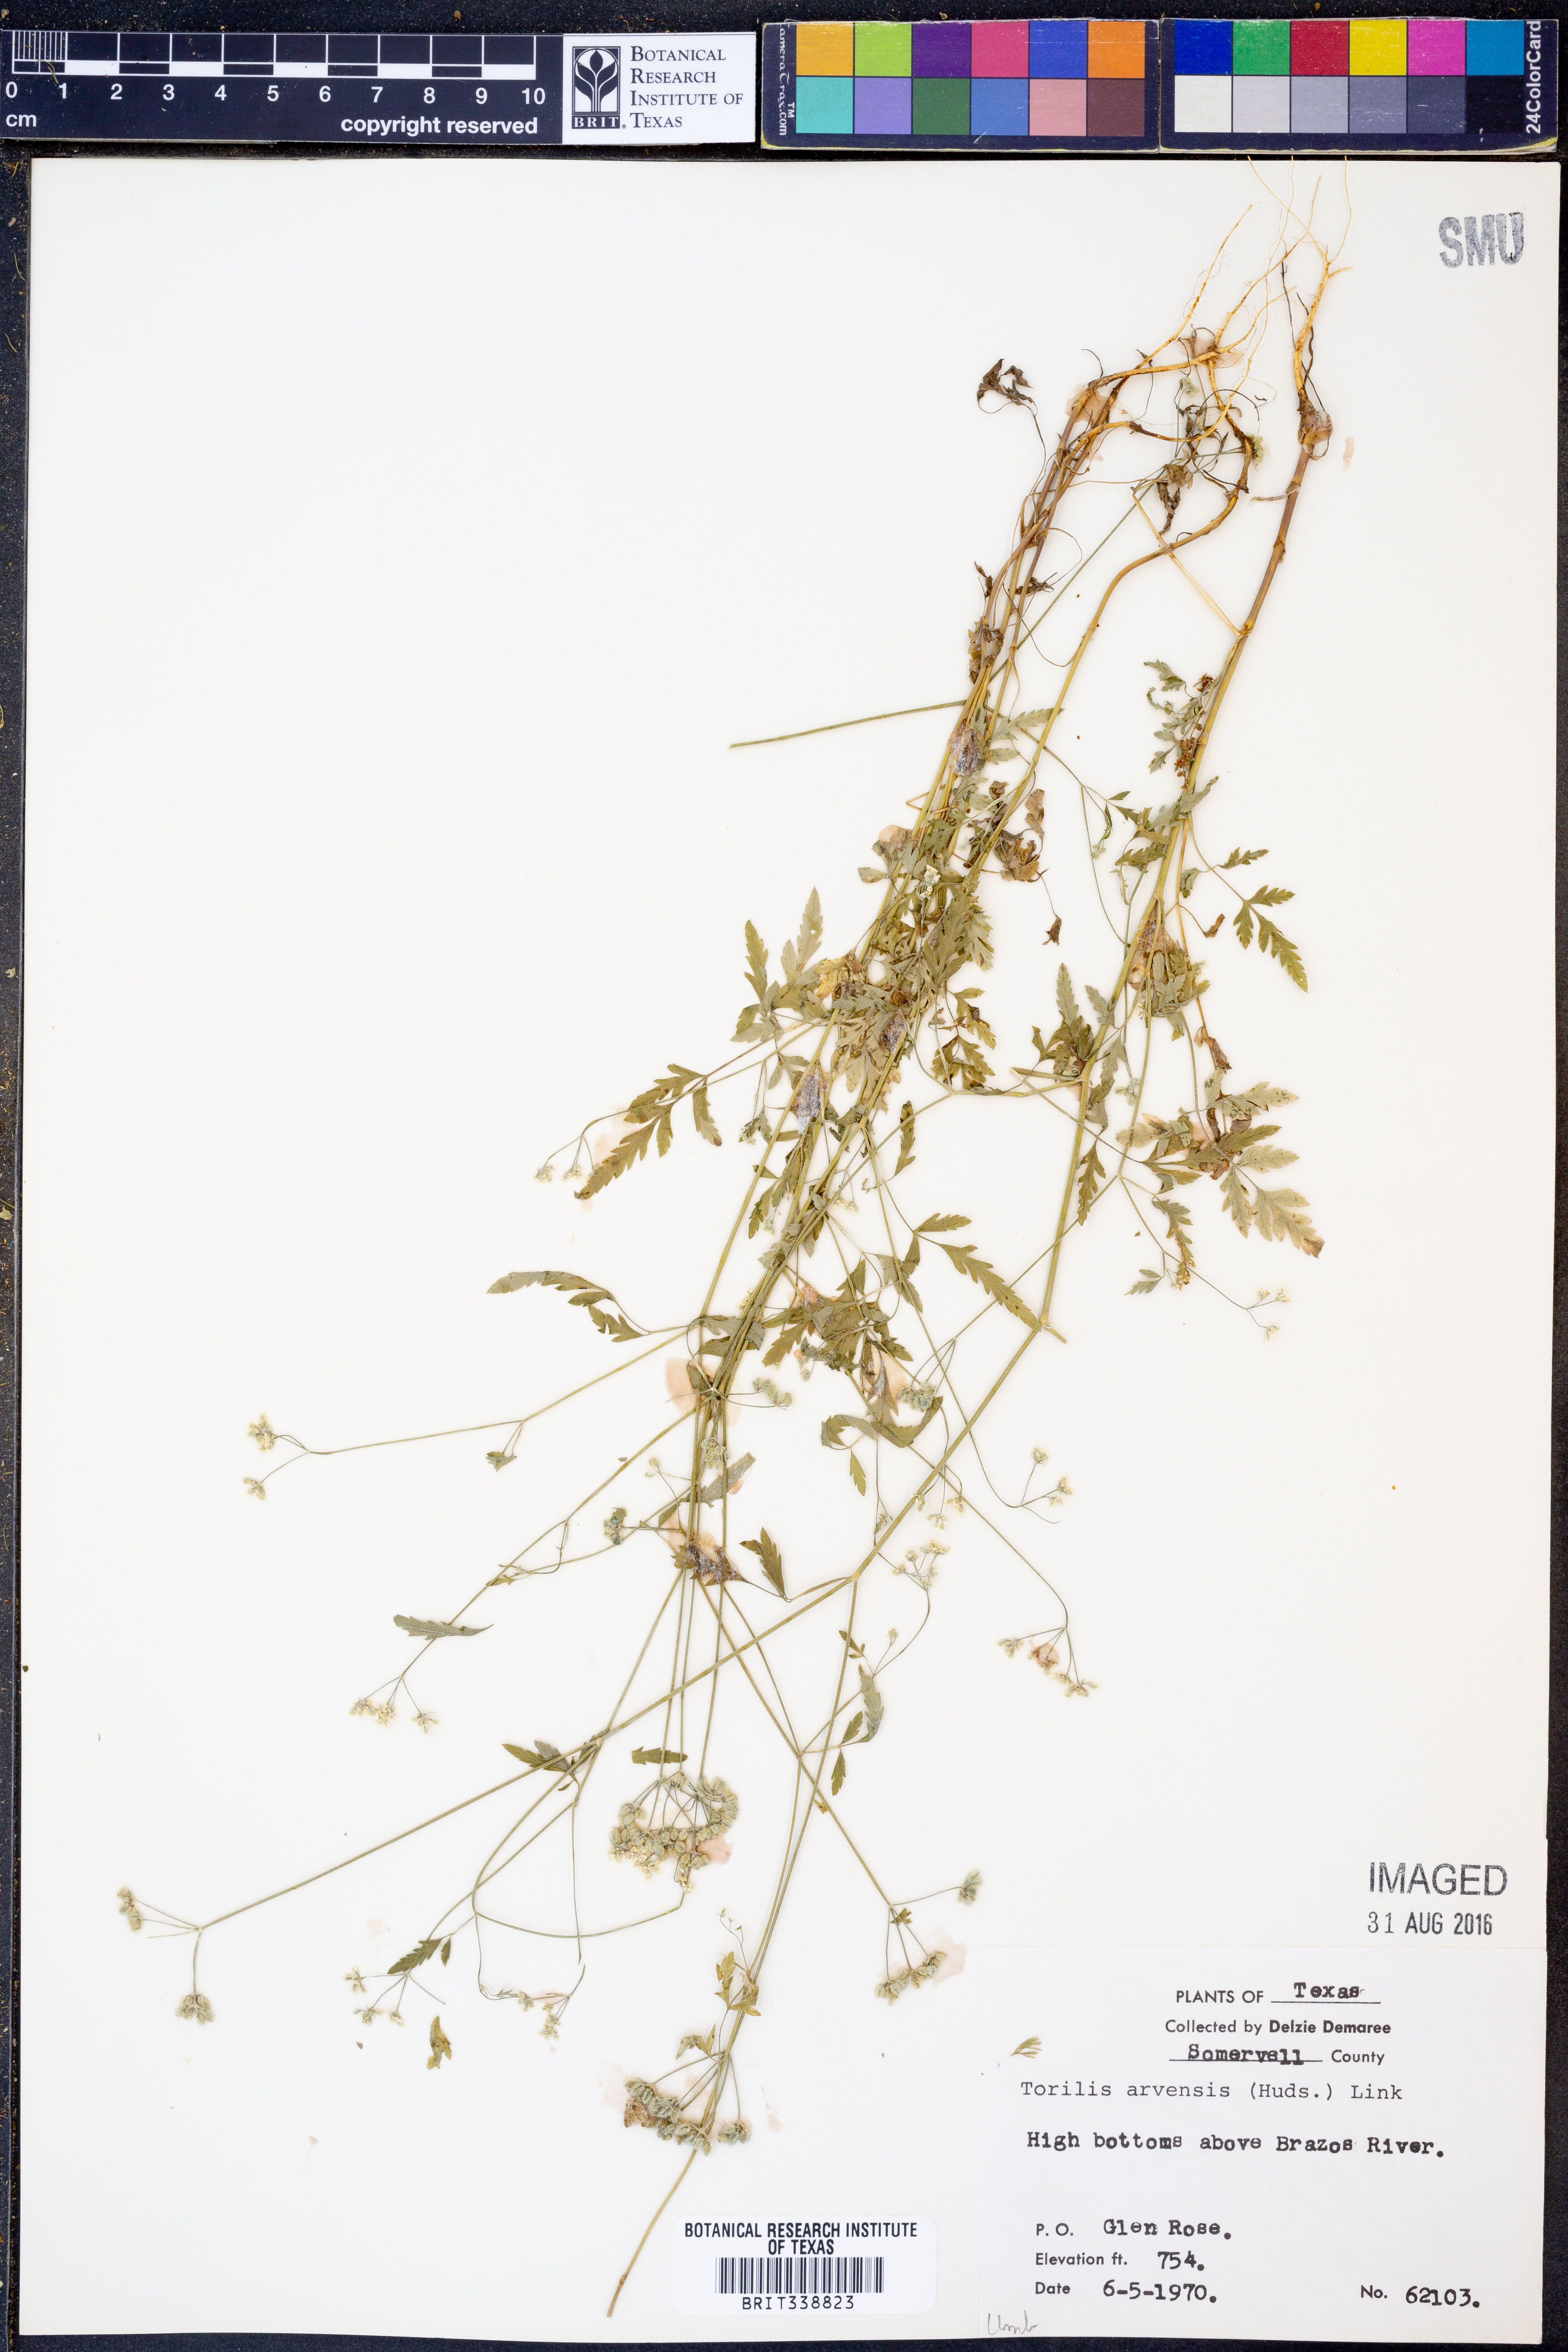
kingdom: Plantae
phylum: Tracheophyta
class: Magnoliopsida
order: Apiales
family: Apiaceae
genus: Torilis
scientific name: Torilis arvensis
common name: Spreading hedge-parsley
